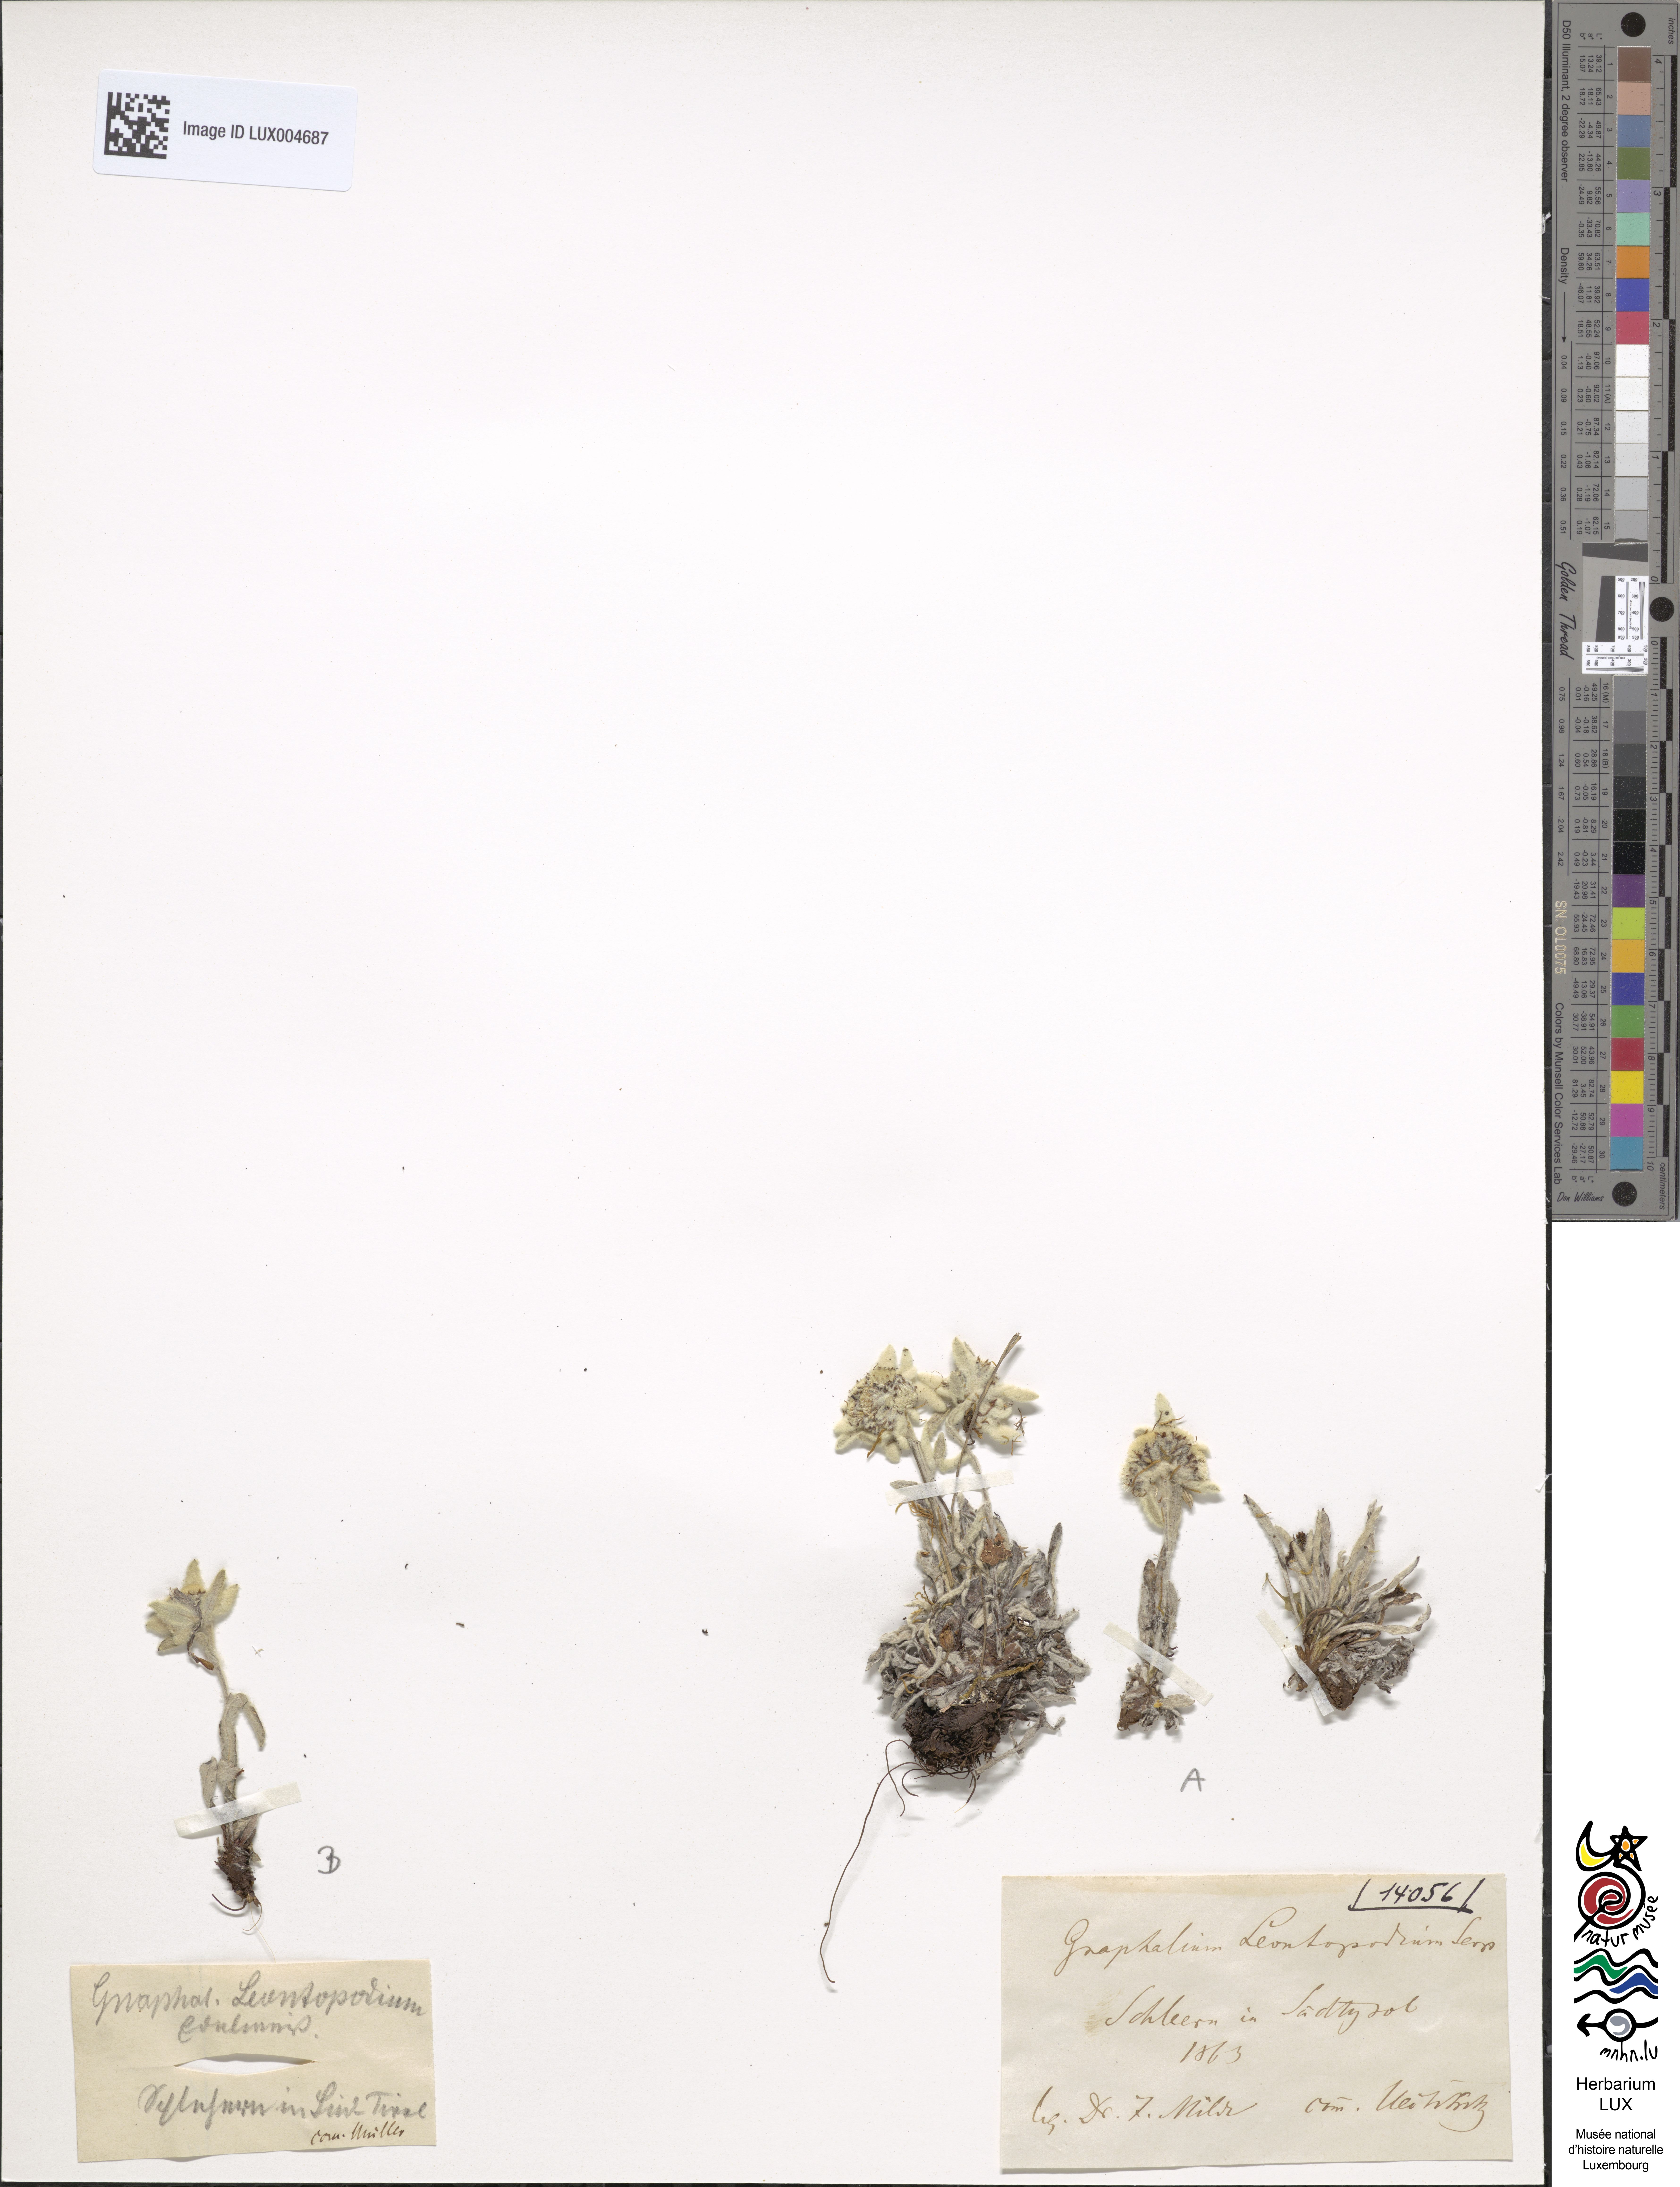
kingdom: Plantae
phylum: Tracheophyta
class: Magnoliopsida
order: Asterales
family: Asteraceae
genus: Leontopodium
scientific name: Leontopodium nivale
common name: Edelweiss
